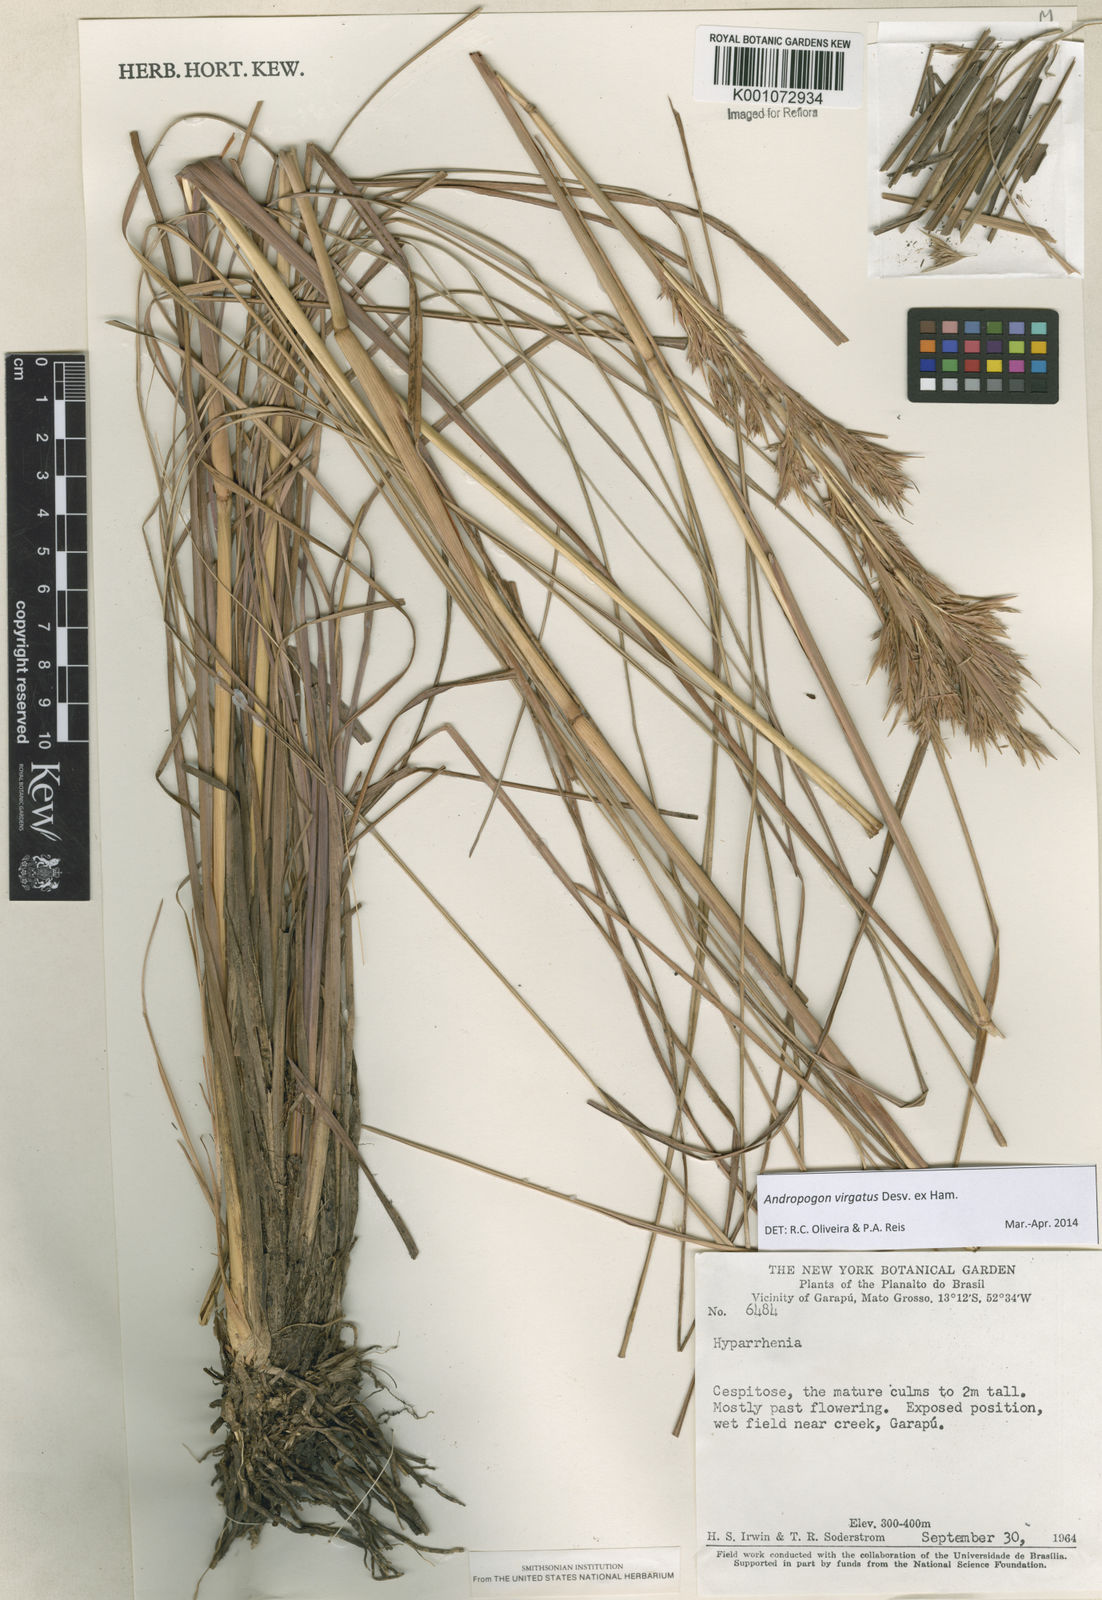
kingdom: Plantae
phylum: Tracheophyta
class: Liliopsida
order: Poales
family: Poaceae
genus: Andropogon
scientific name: Andropogon virgatus
